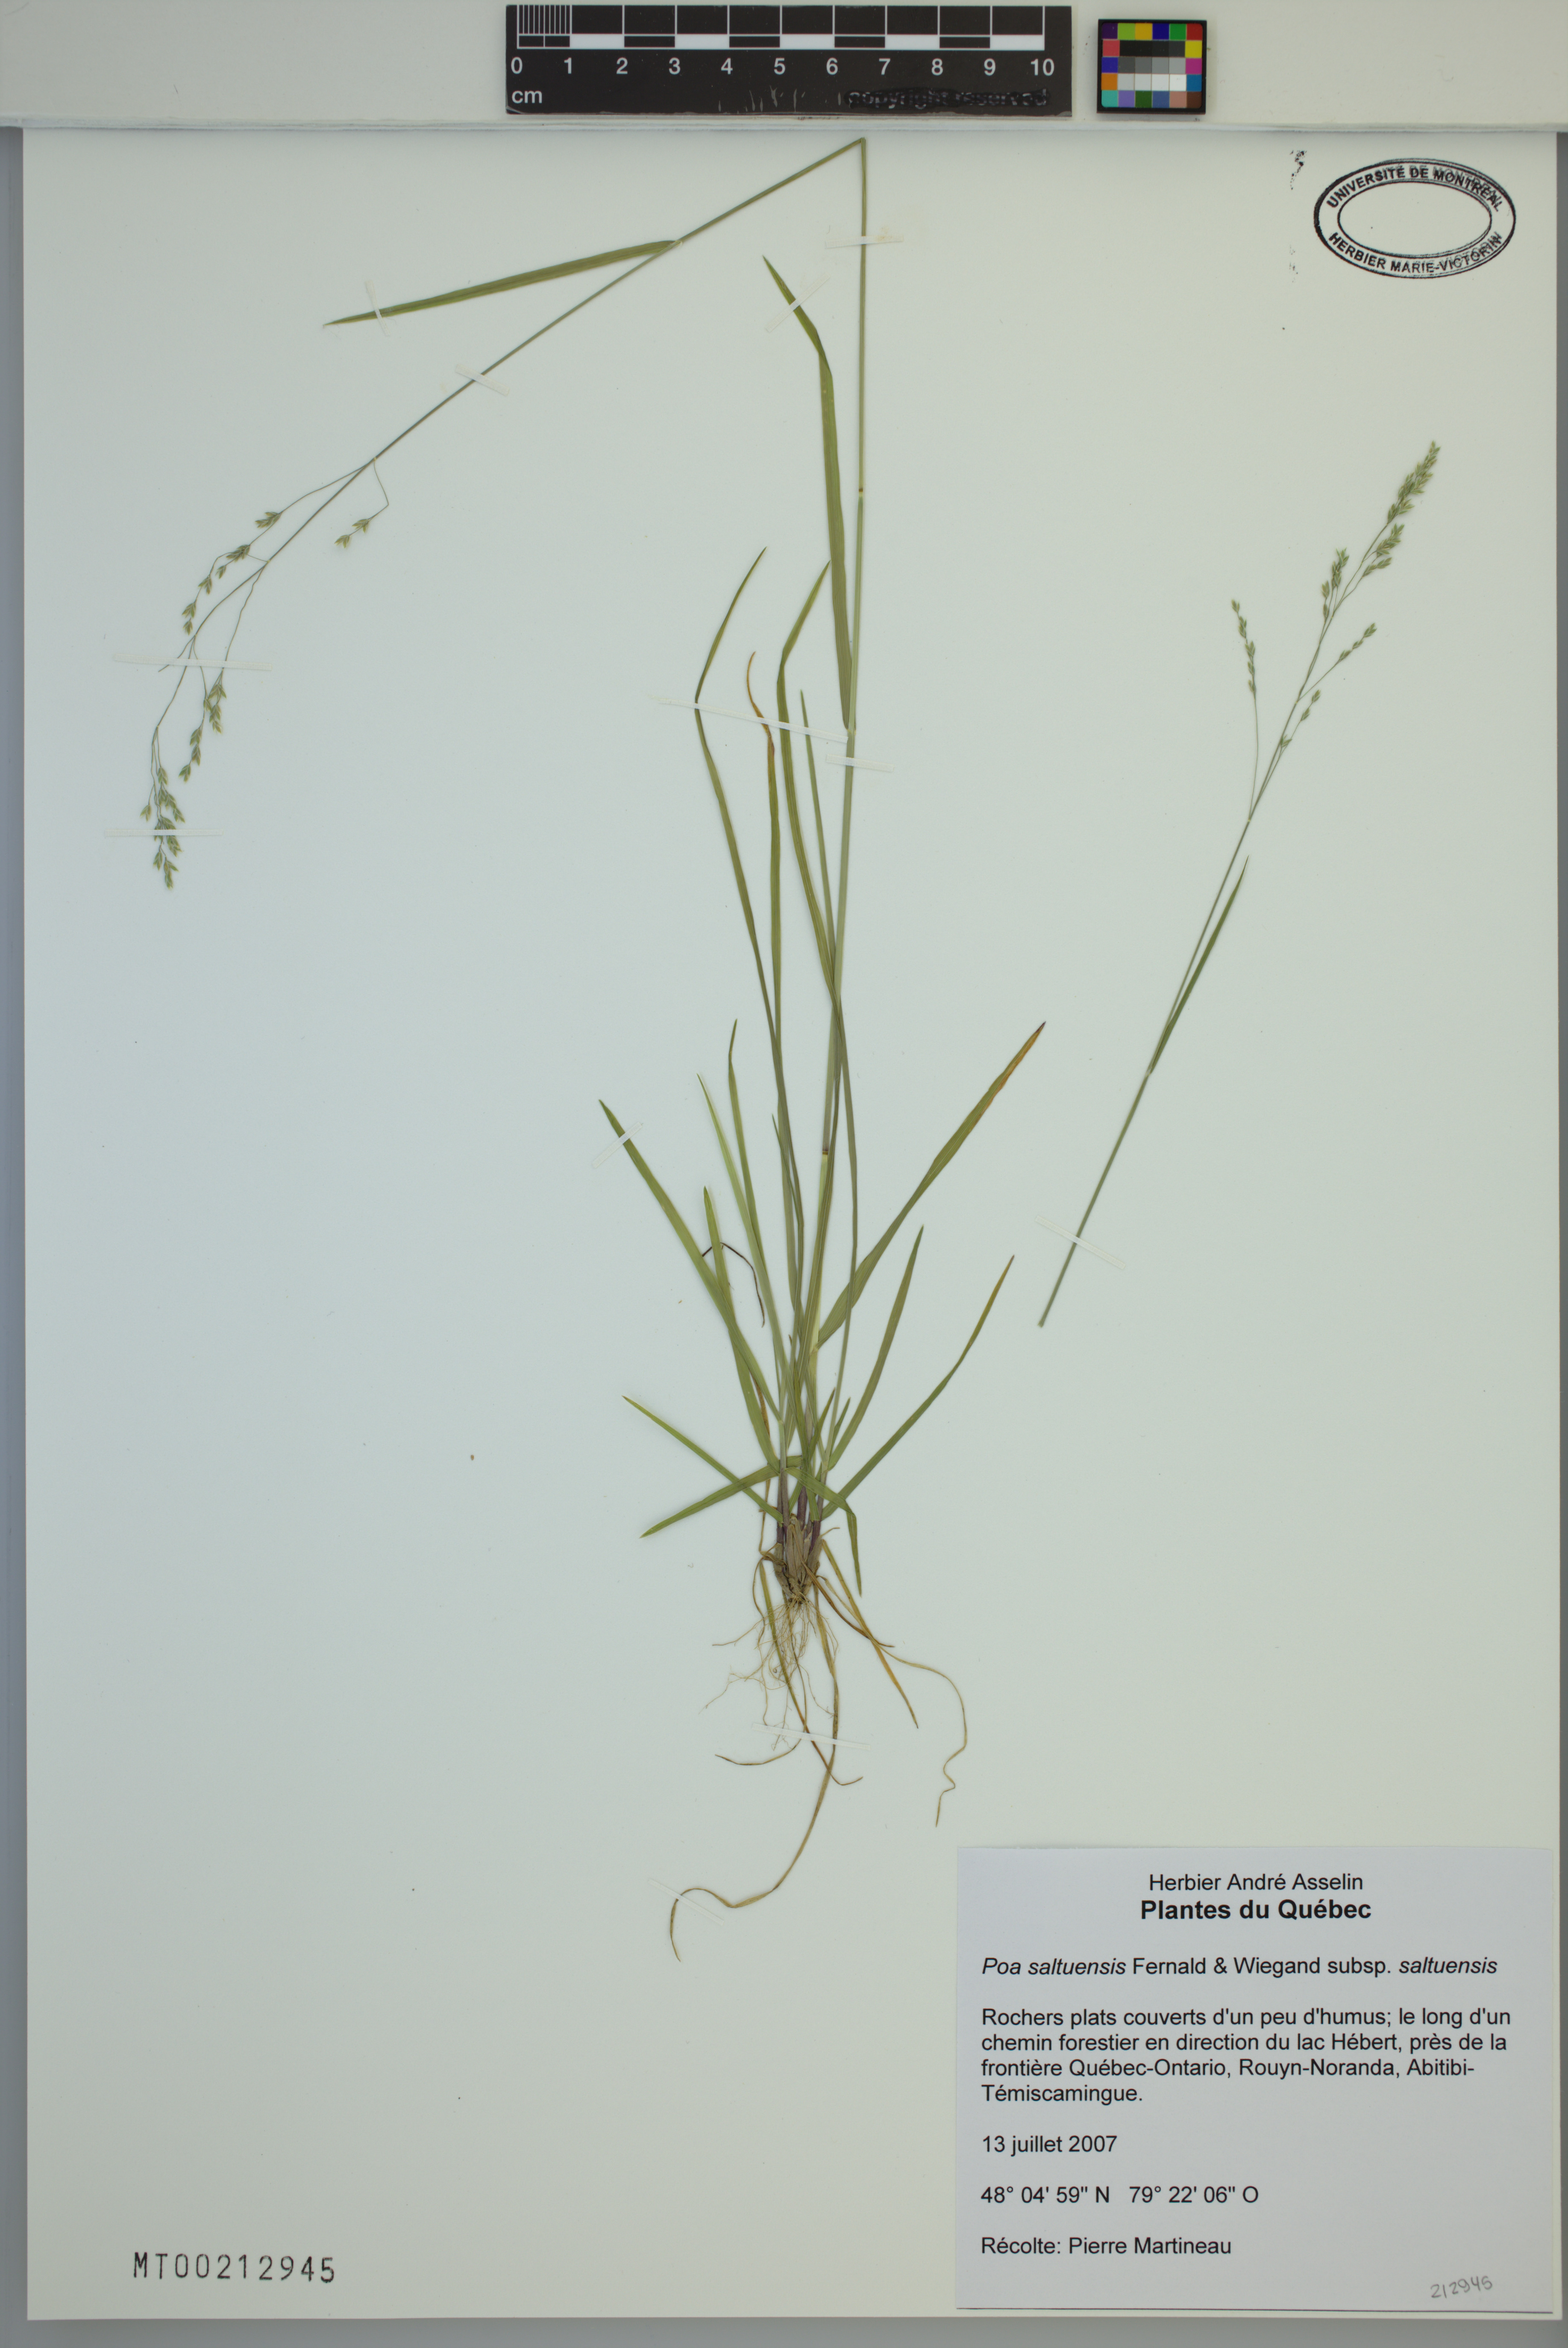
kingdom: Plantae
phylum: Tracheophyta
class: Liliopsida
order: Poales
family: Poaceae
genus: Poa
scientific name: Poa saltuensis
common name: Bushy pasture speargrass
